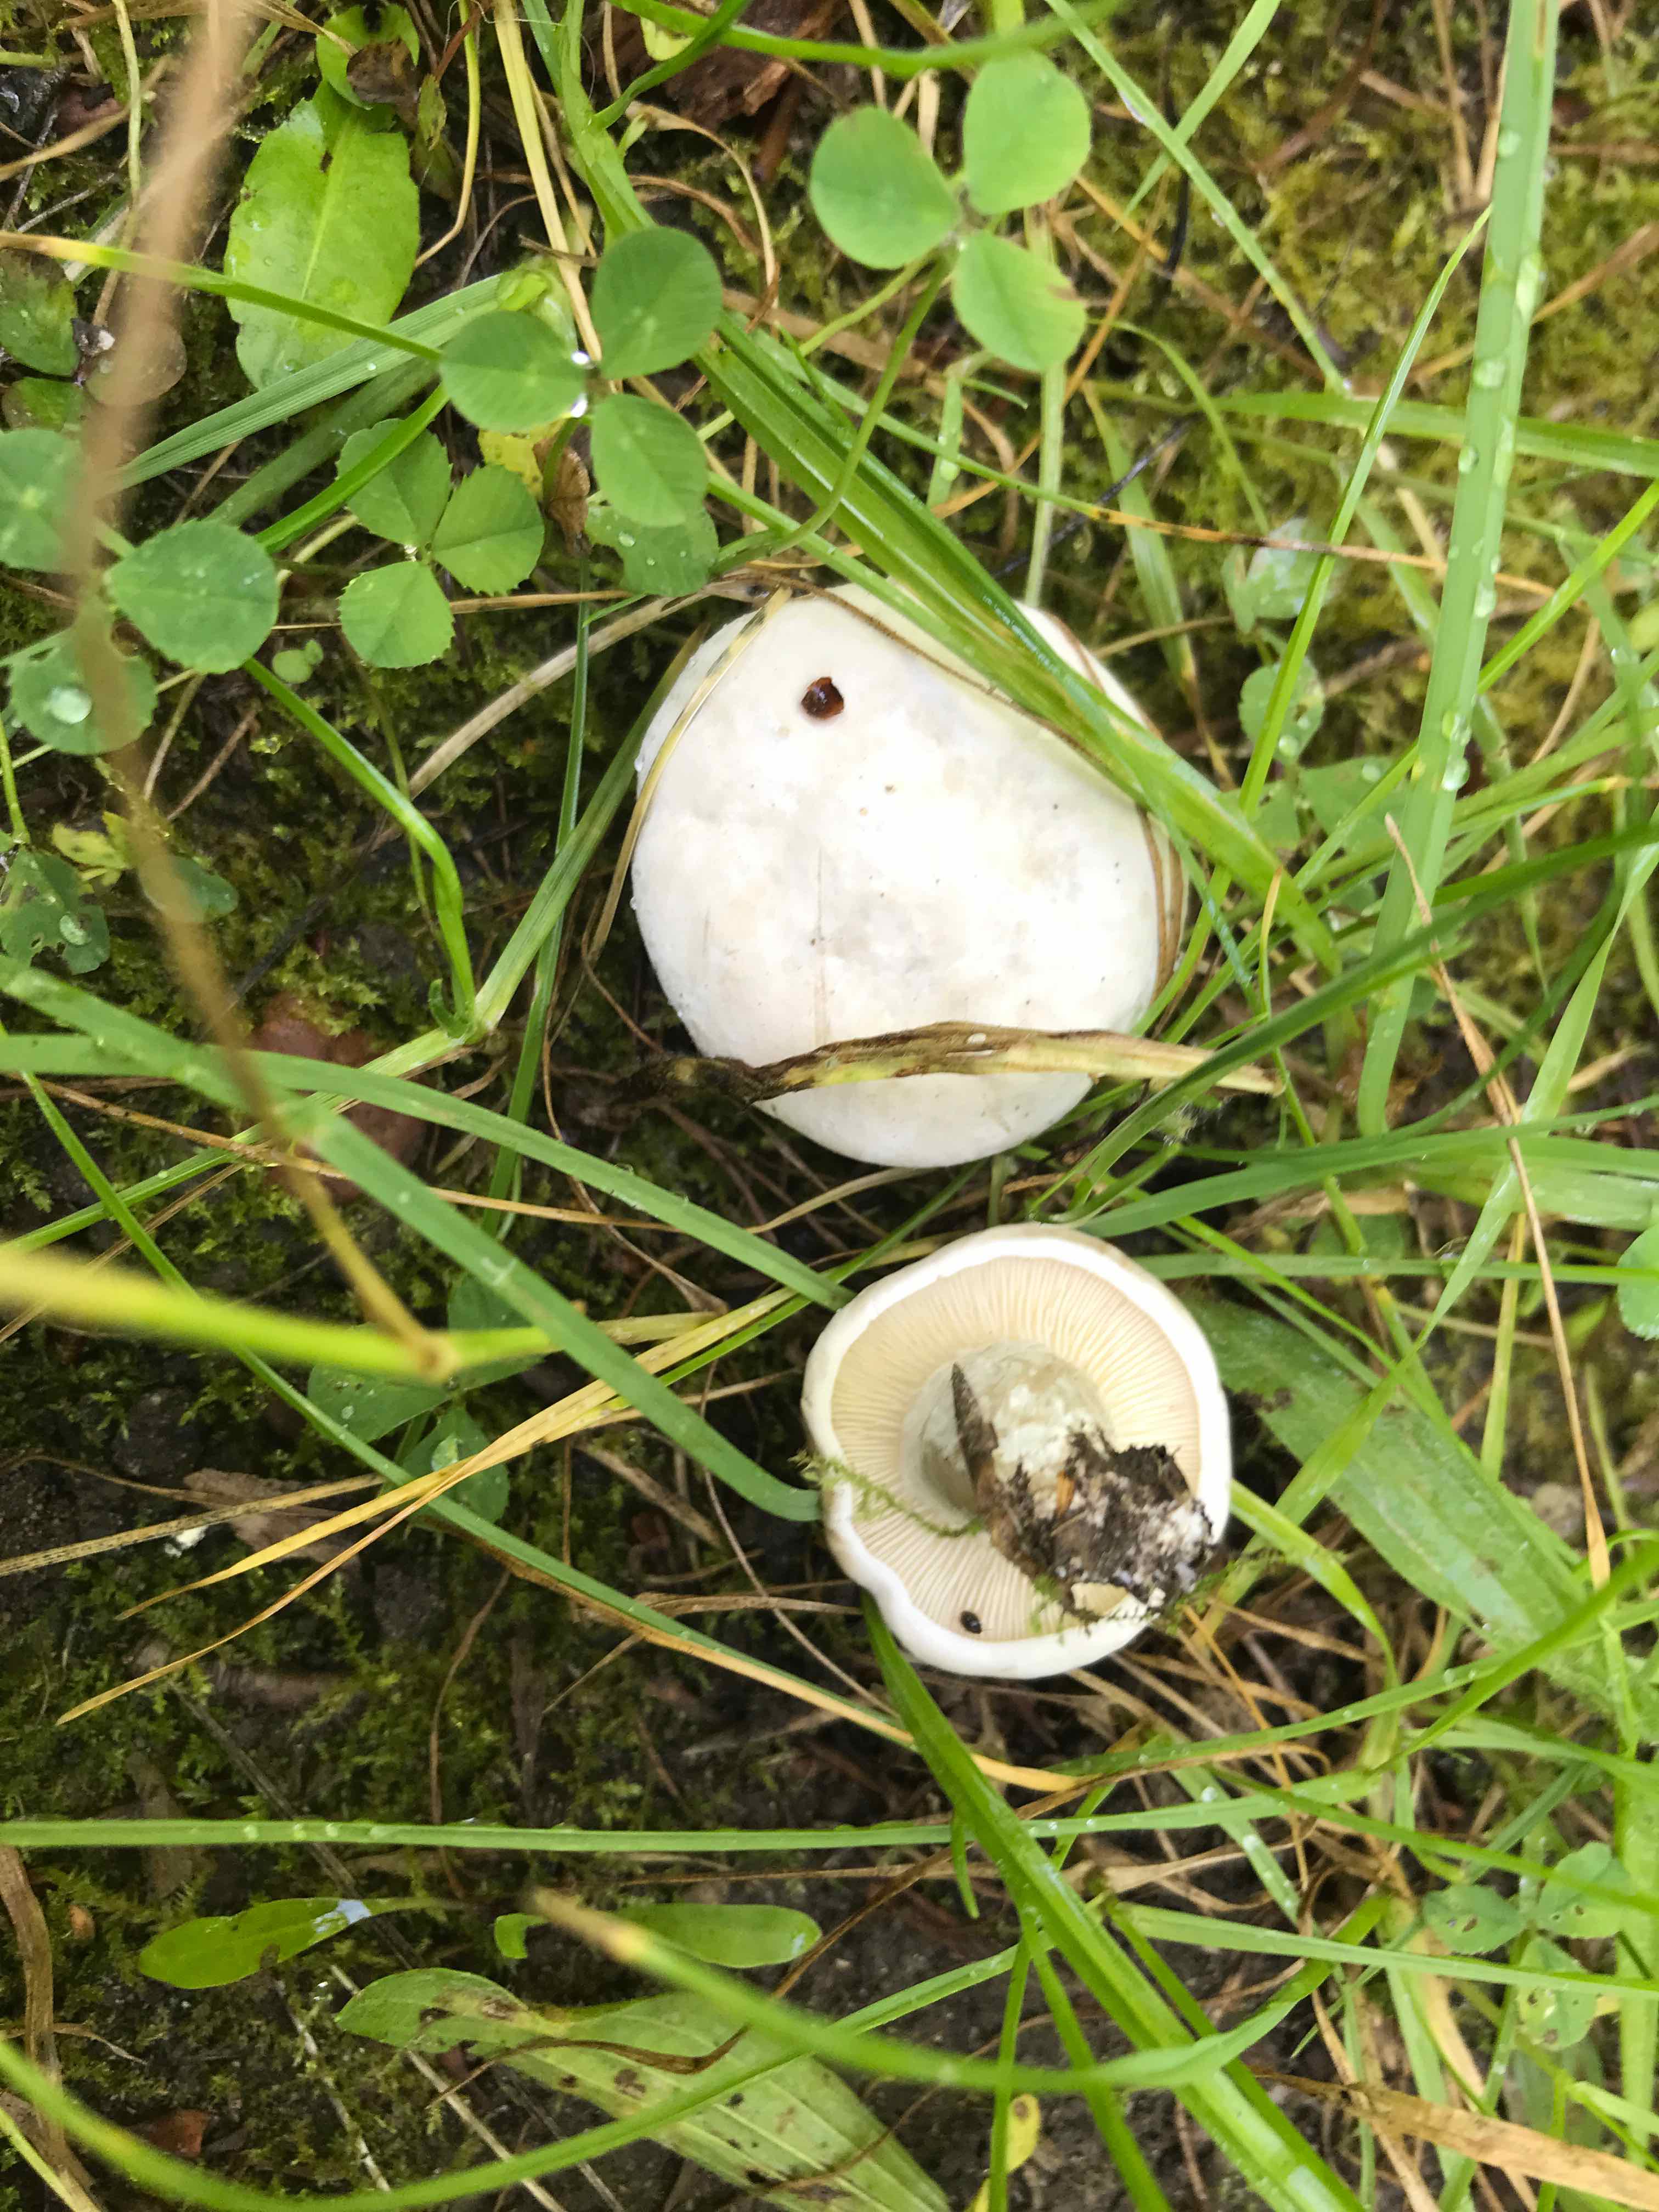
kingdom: Fungi
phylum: Basidiomycota
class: Agaricomycetes
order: Agaricales
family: Entolomataceae
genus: Clitopilus
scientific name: Clitopilus prunulus
